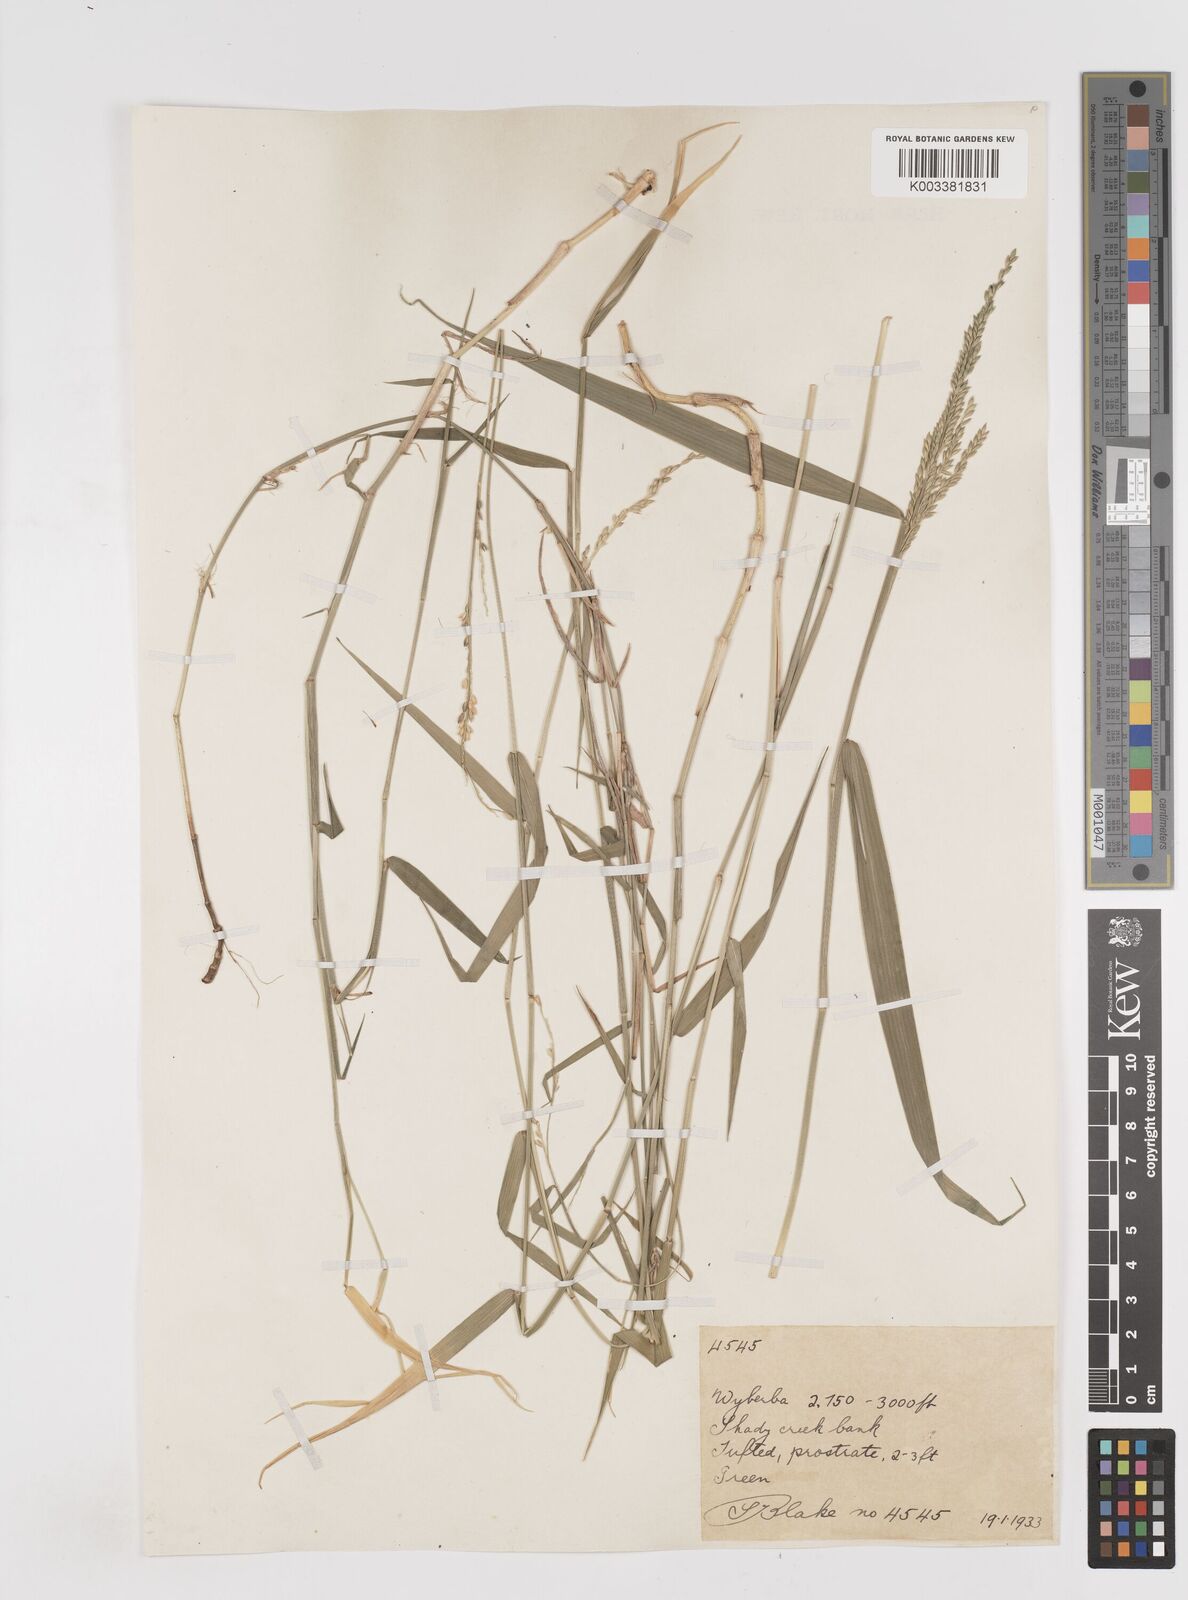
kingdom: Plantae
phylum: Tracheophyta
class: Liliopsida
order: Poales
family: Poaceae
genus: Entolasia
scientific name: Entolasia
